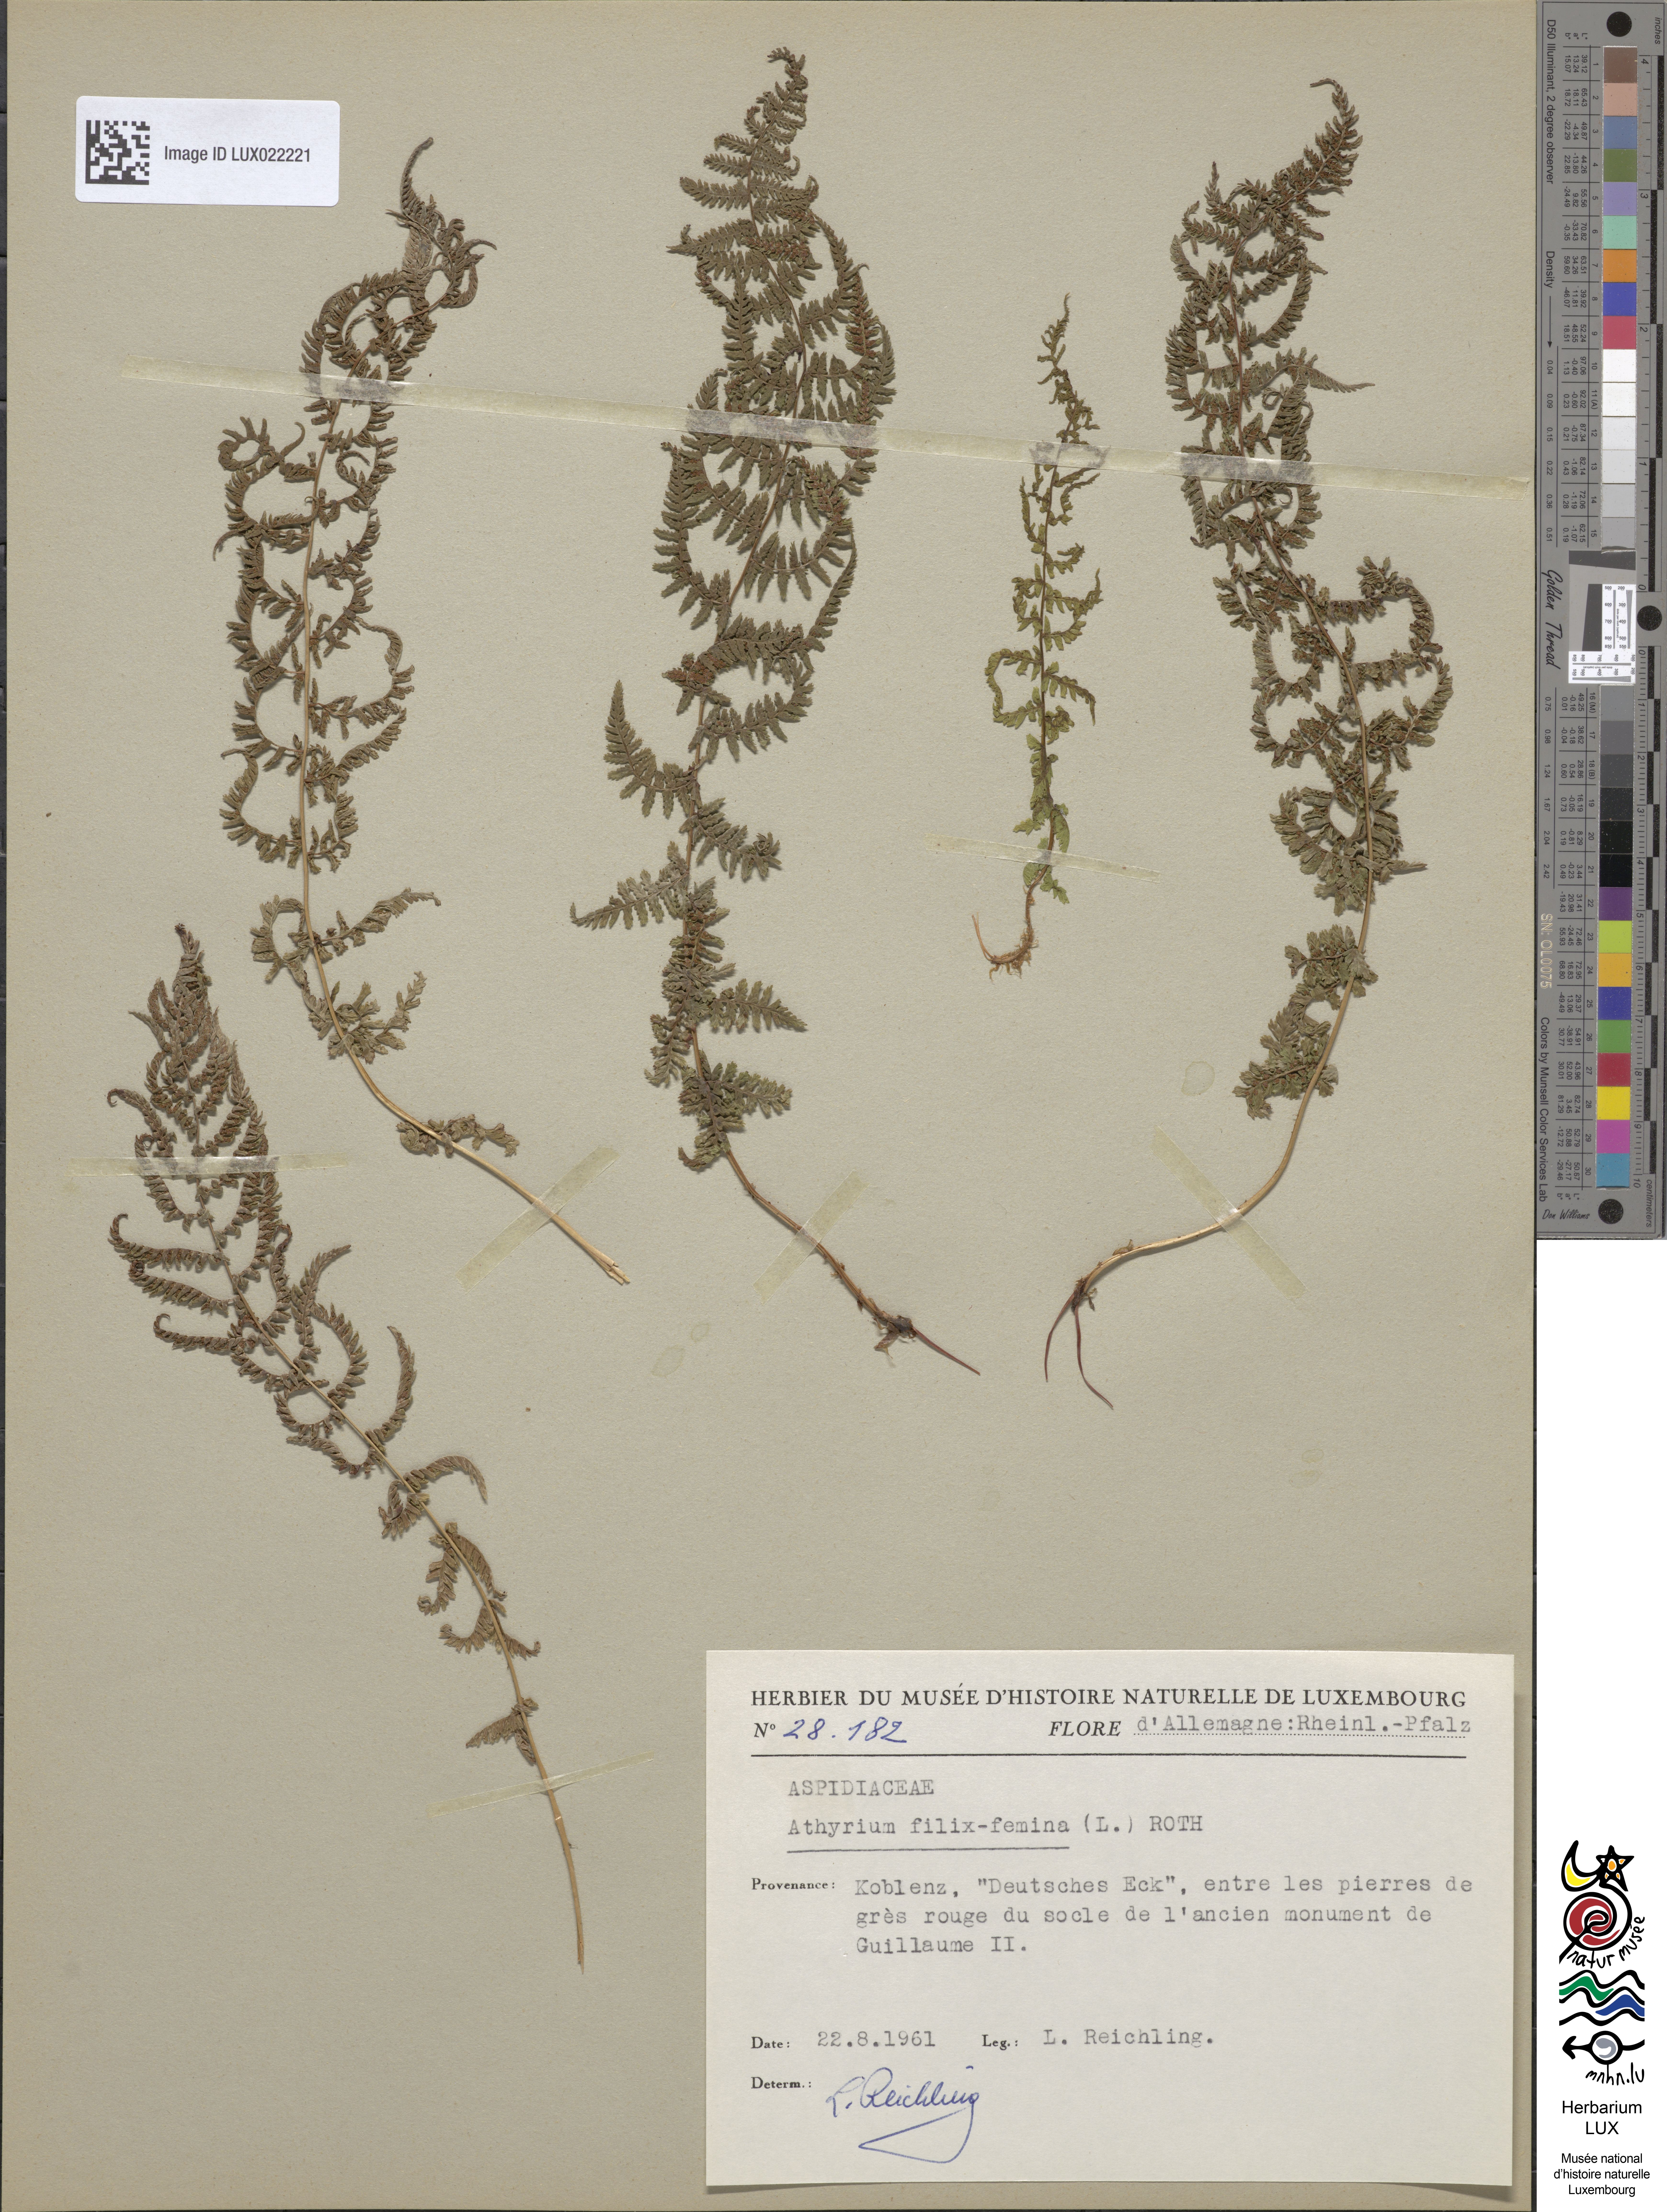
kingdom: Plantae
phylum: Tracheophyta
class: Polypodiopsida
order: Polypodiales
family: Athyriaceae
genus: Athyrium
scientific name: Athyrium filix-femina
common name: Lady fern
